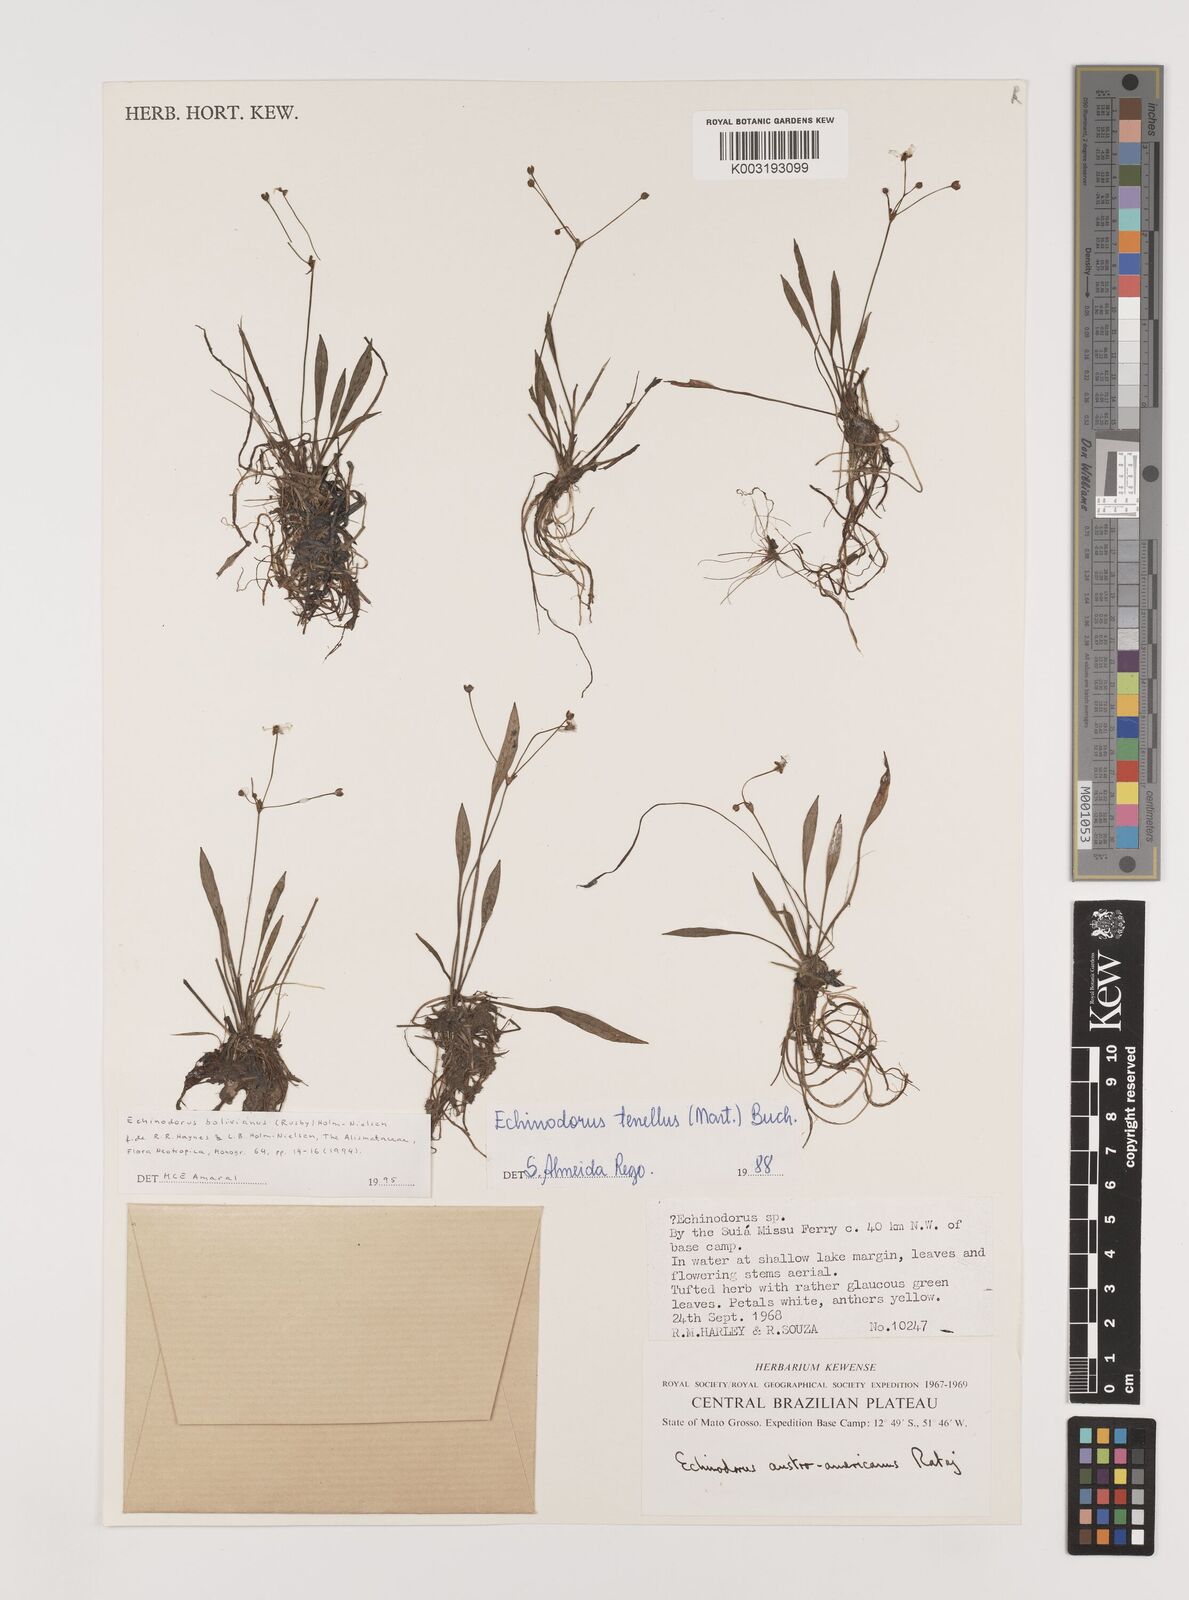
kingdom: Plantae
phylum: Tracheophyta
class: Liliopsida
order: Alismatales
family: Alismataceae
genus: Helanthium
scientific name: Helanthium bolivianum
